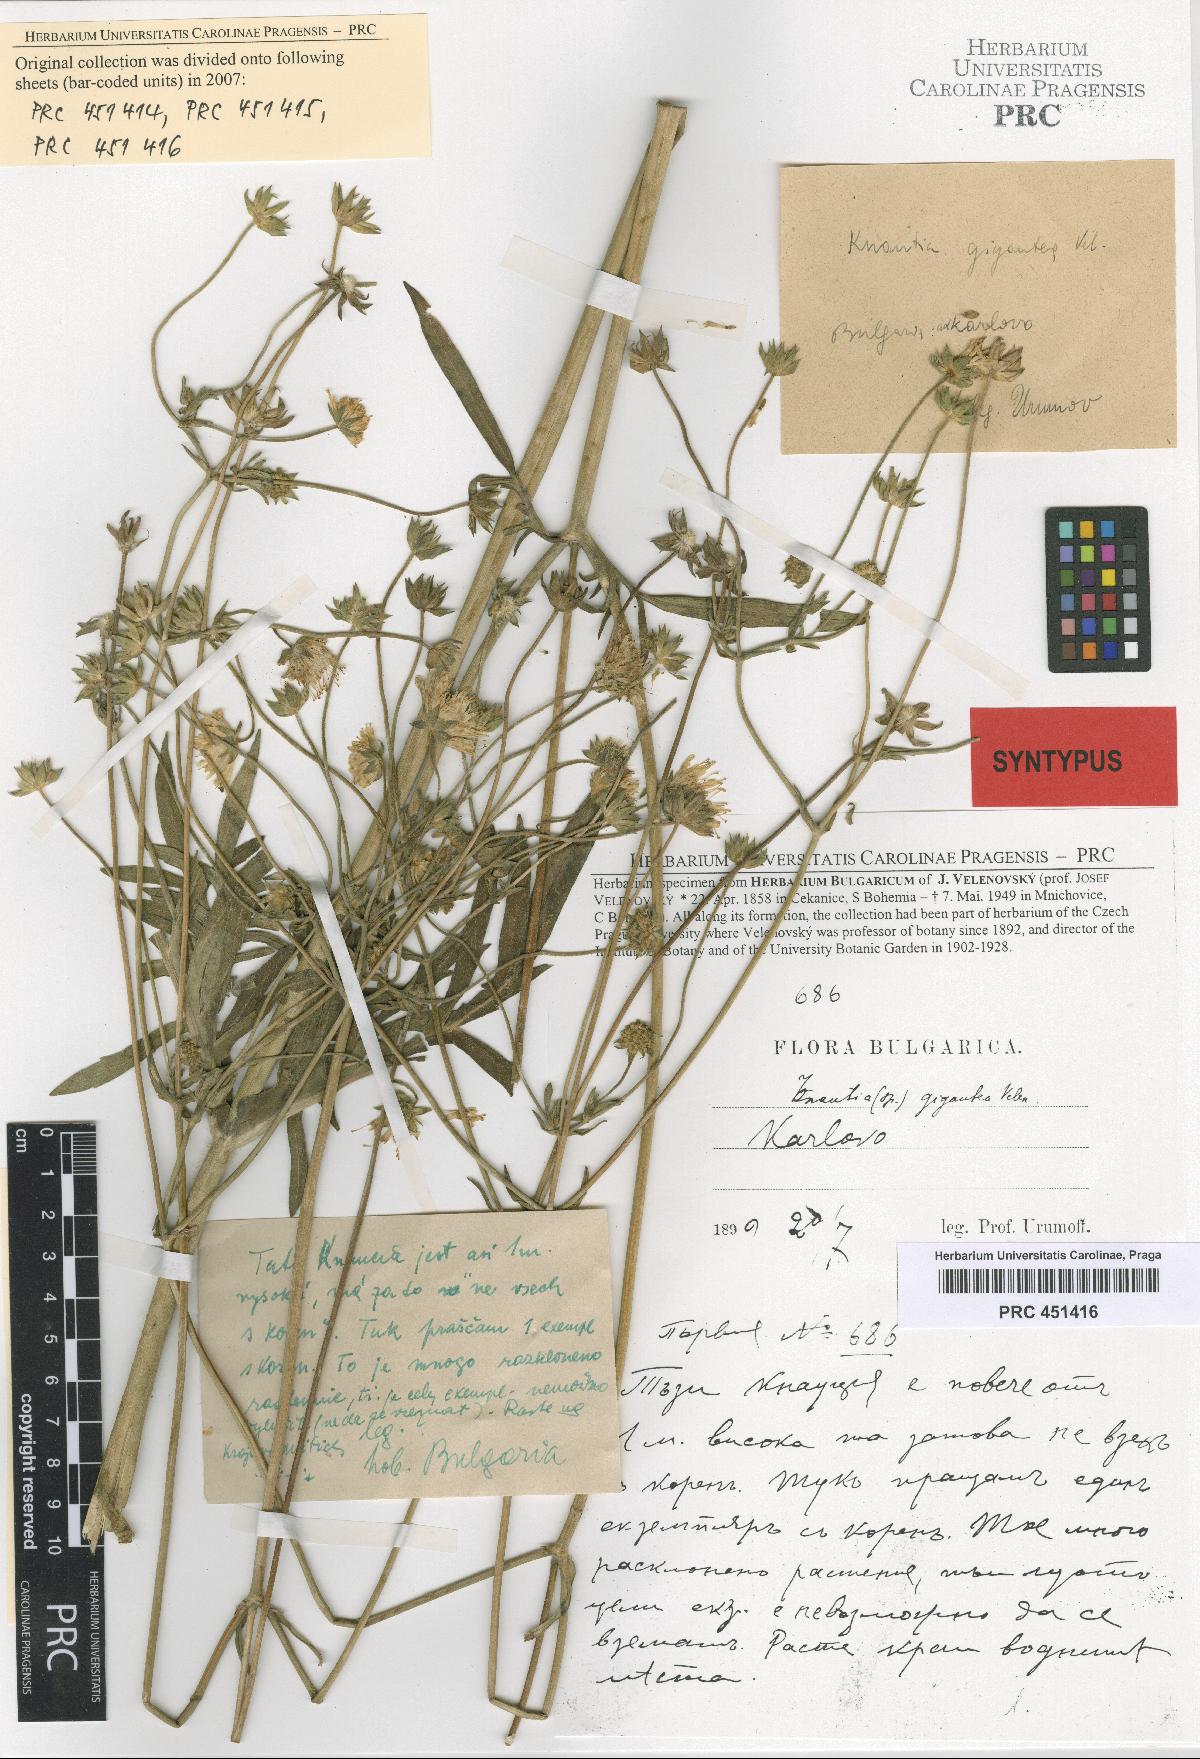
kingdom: Plantae
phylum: Tracheophyta
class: Magnoliopsida
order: Dipsacales
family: Caprifoliaceae
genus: Knautia
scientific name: Knautia collina
